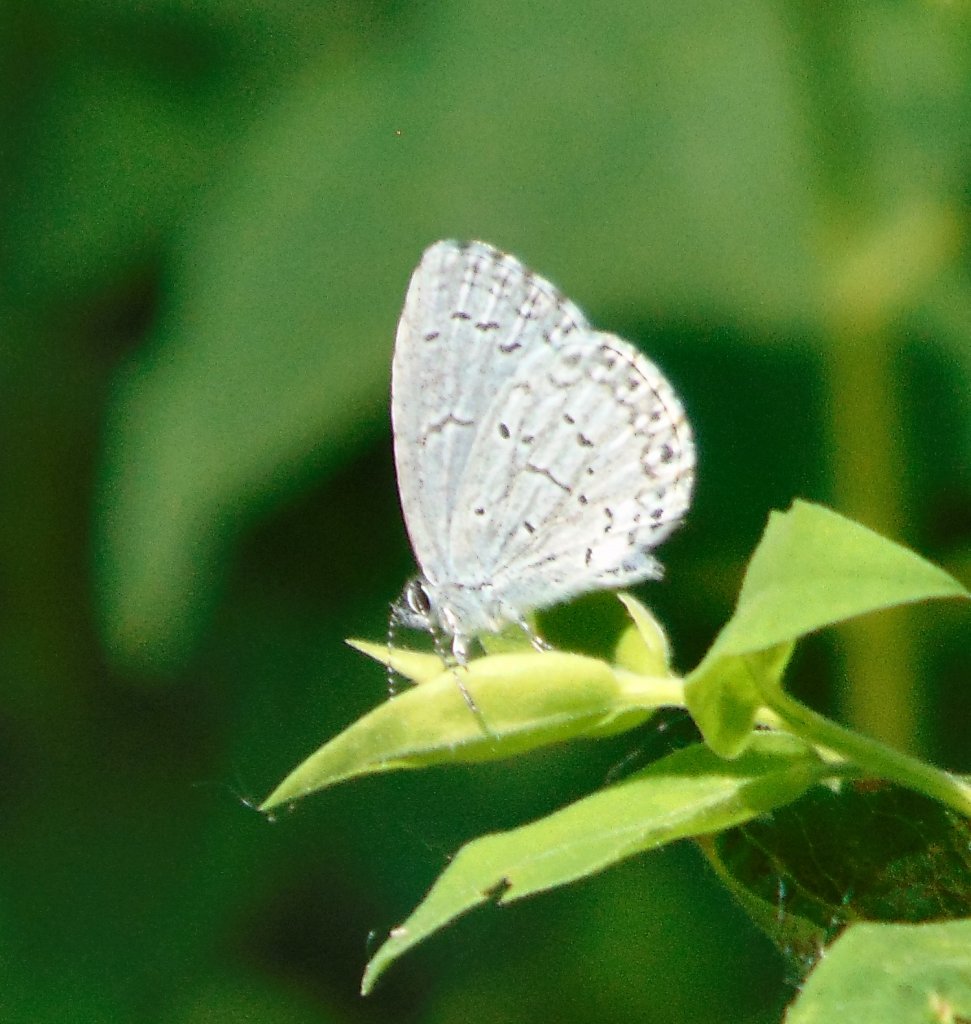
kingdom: Animalia
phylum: Arthropoda
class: Insecta
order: Lepidoptera
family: Lycaenidae
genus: Cyaniris
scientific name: Cyaniris neglecta
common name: Summer Azure
